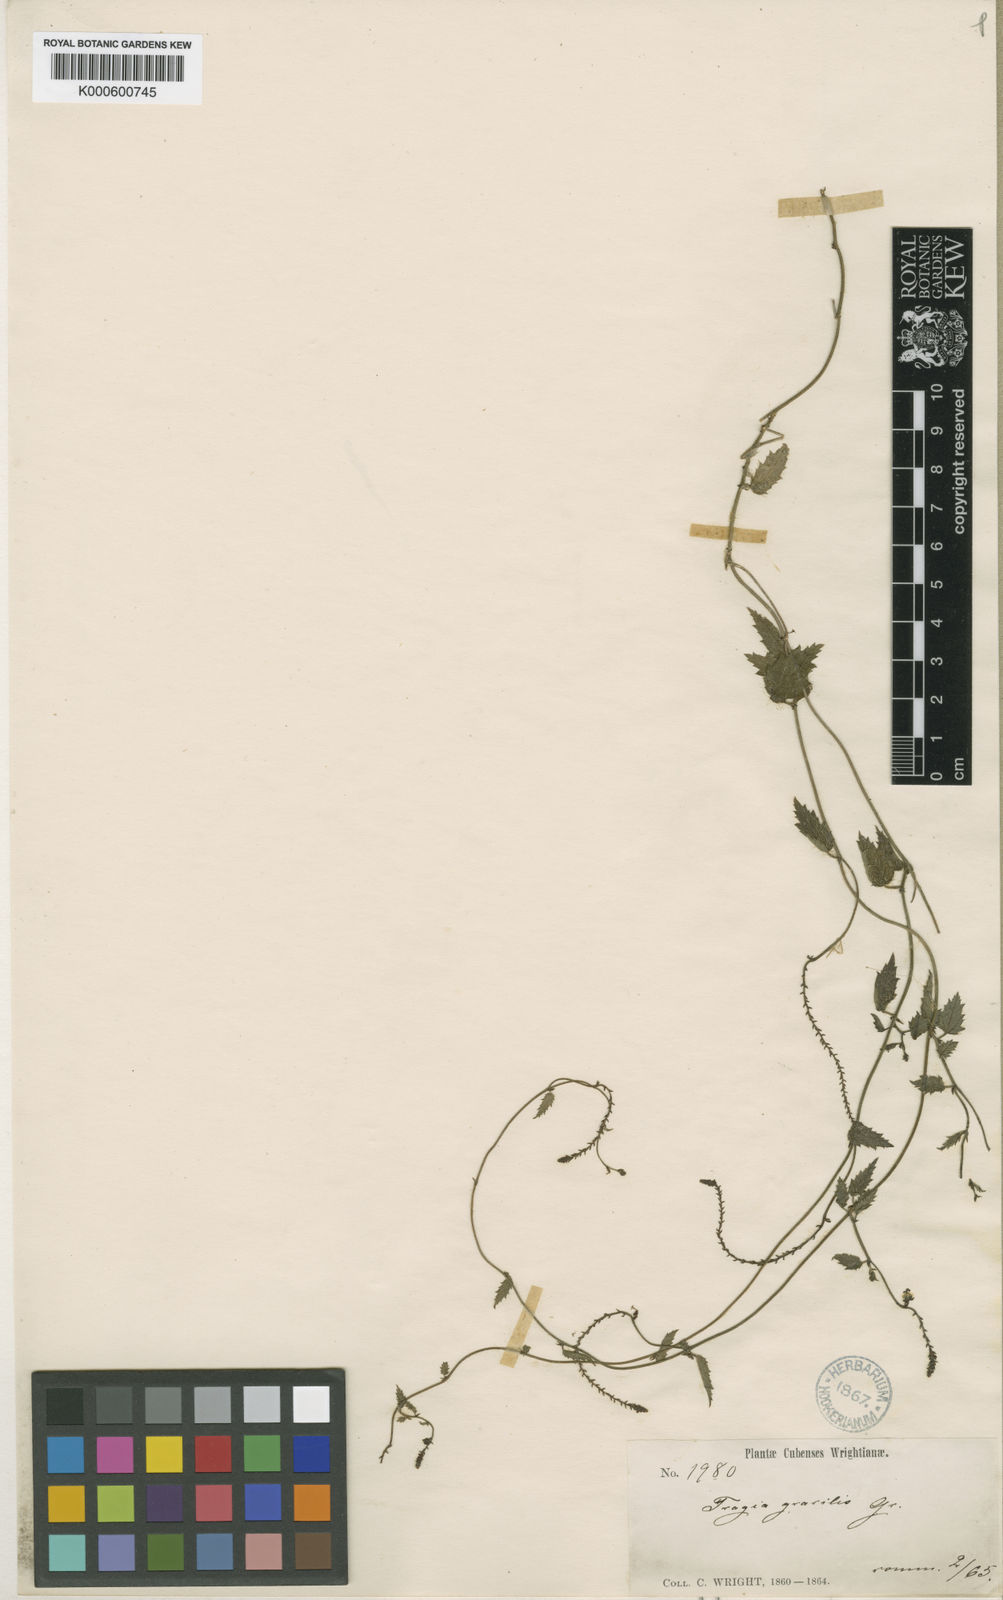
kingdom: Plantae
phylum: Tracheophyta
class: Magnoliopsida
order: Malpighiales
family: Euphorbiaceae
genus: Tragia
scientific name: Tragia gracilis
